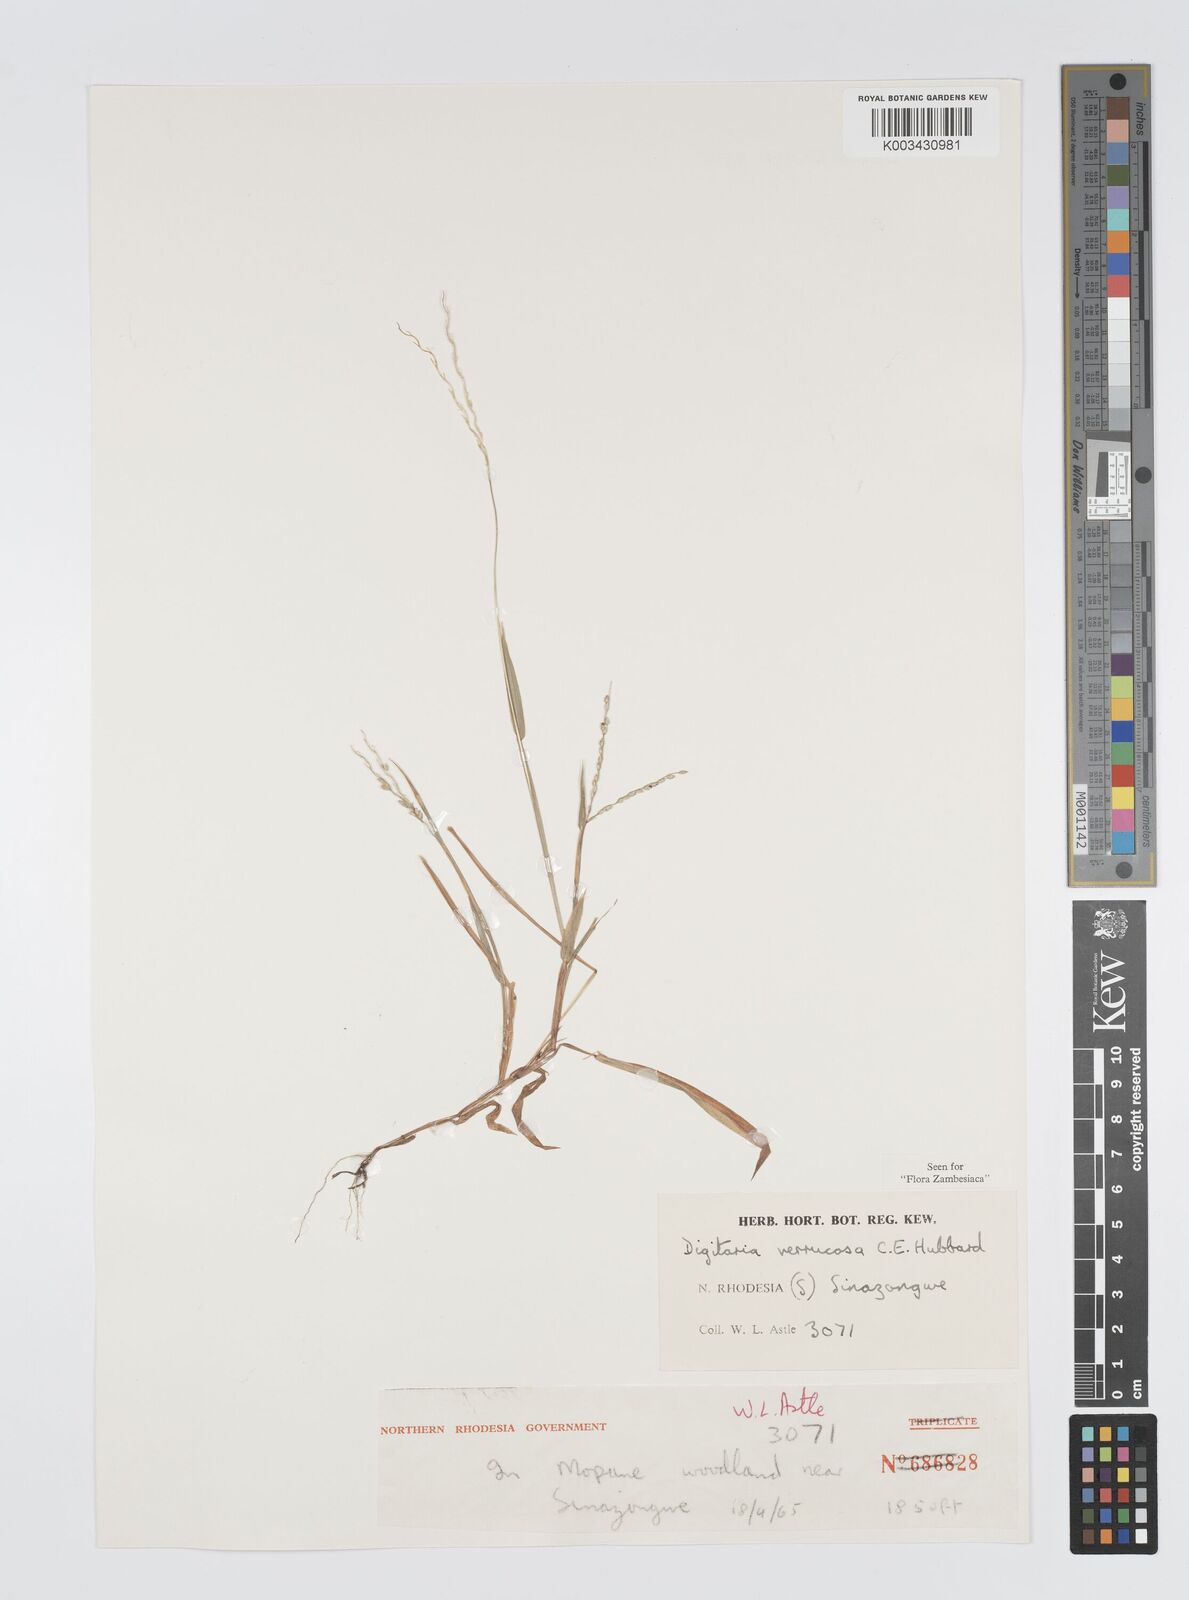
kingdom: Plantae
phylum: Tracheophyta
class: Liliopsida
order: Poales
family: Poaceae
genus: Digitaria
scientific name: Digitaria angolensis
